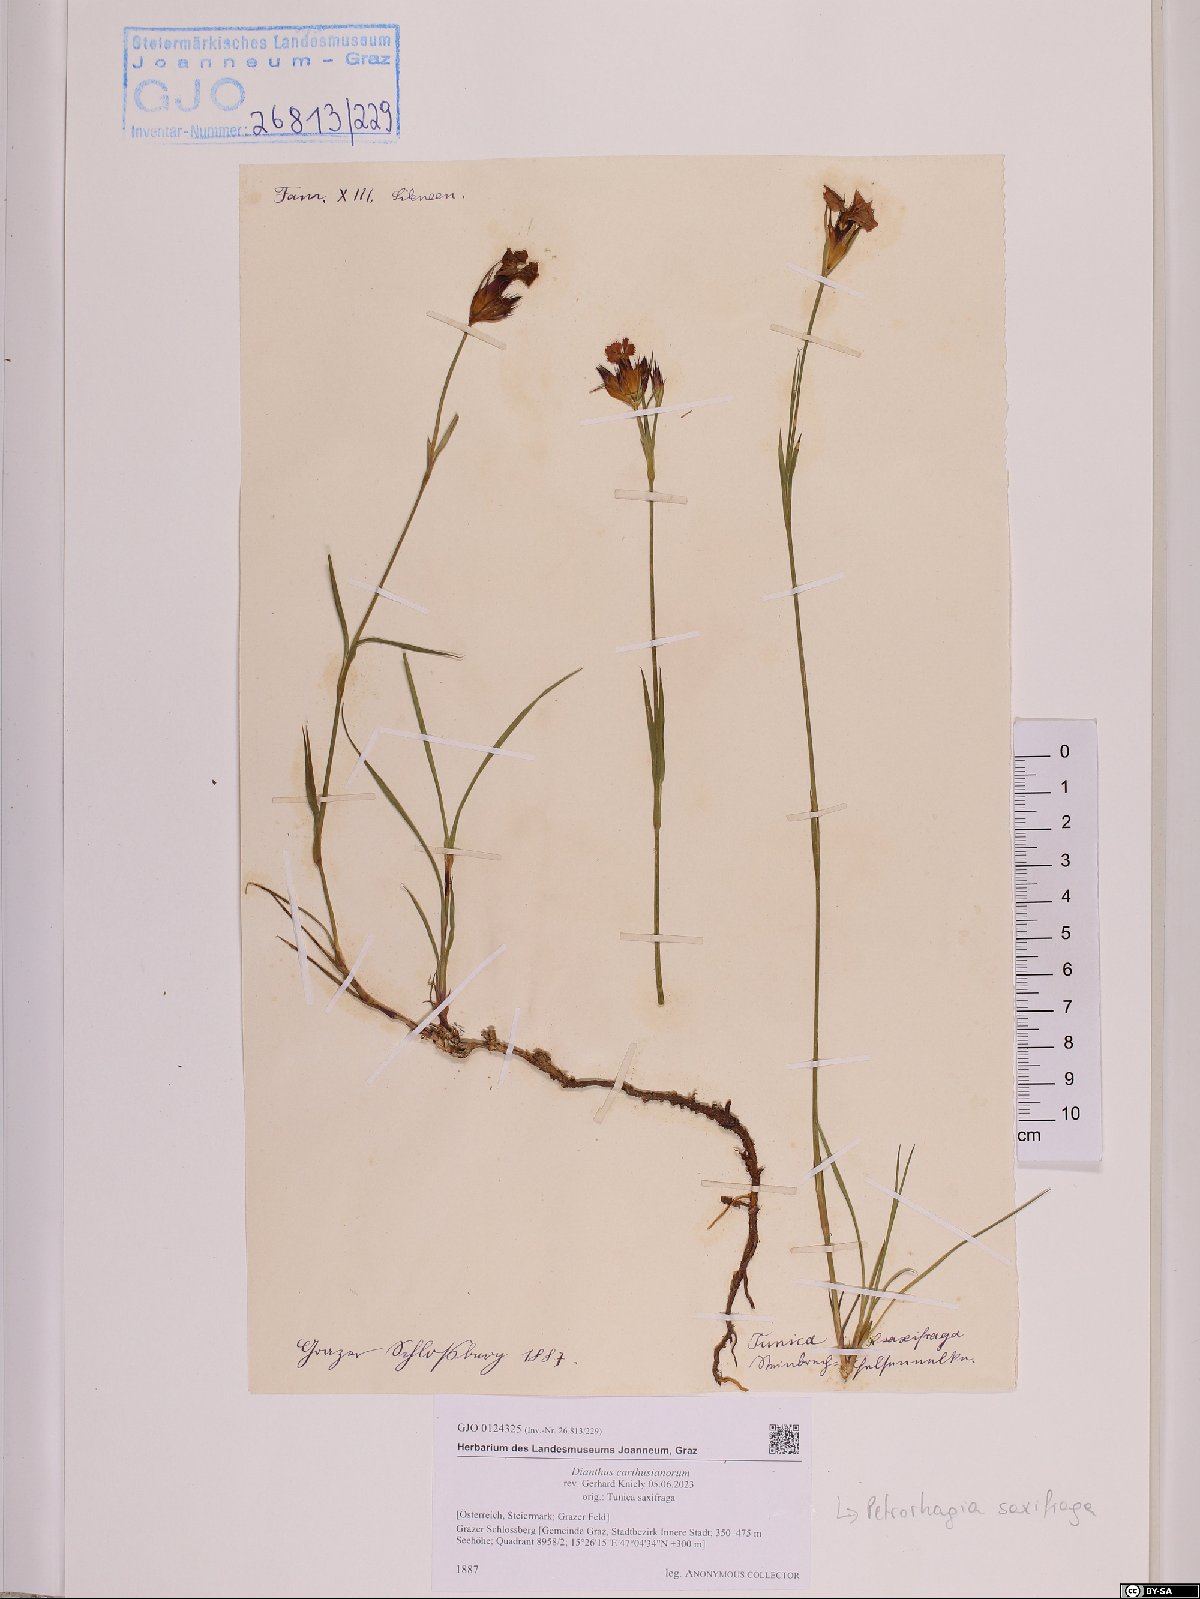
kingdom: Plantae
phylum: Tracheophyta
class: Magnoliopsida
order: Caryophyllales
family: Caryophyllaceae
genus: Dianthus
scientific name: Dianthus carthusianorum
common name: Carthusian pink
